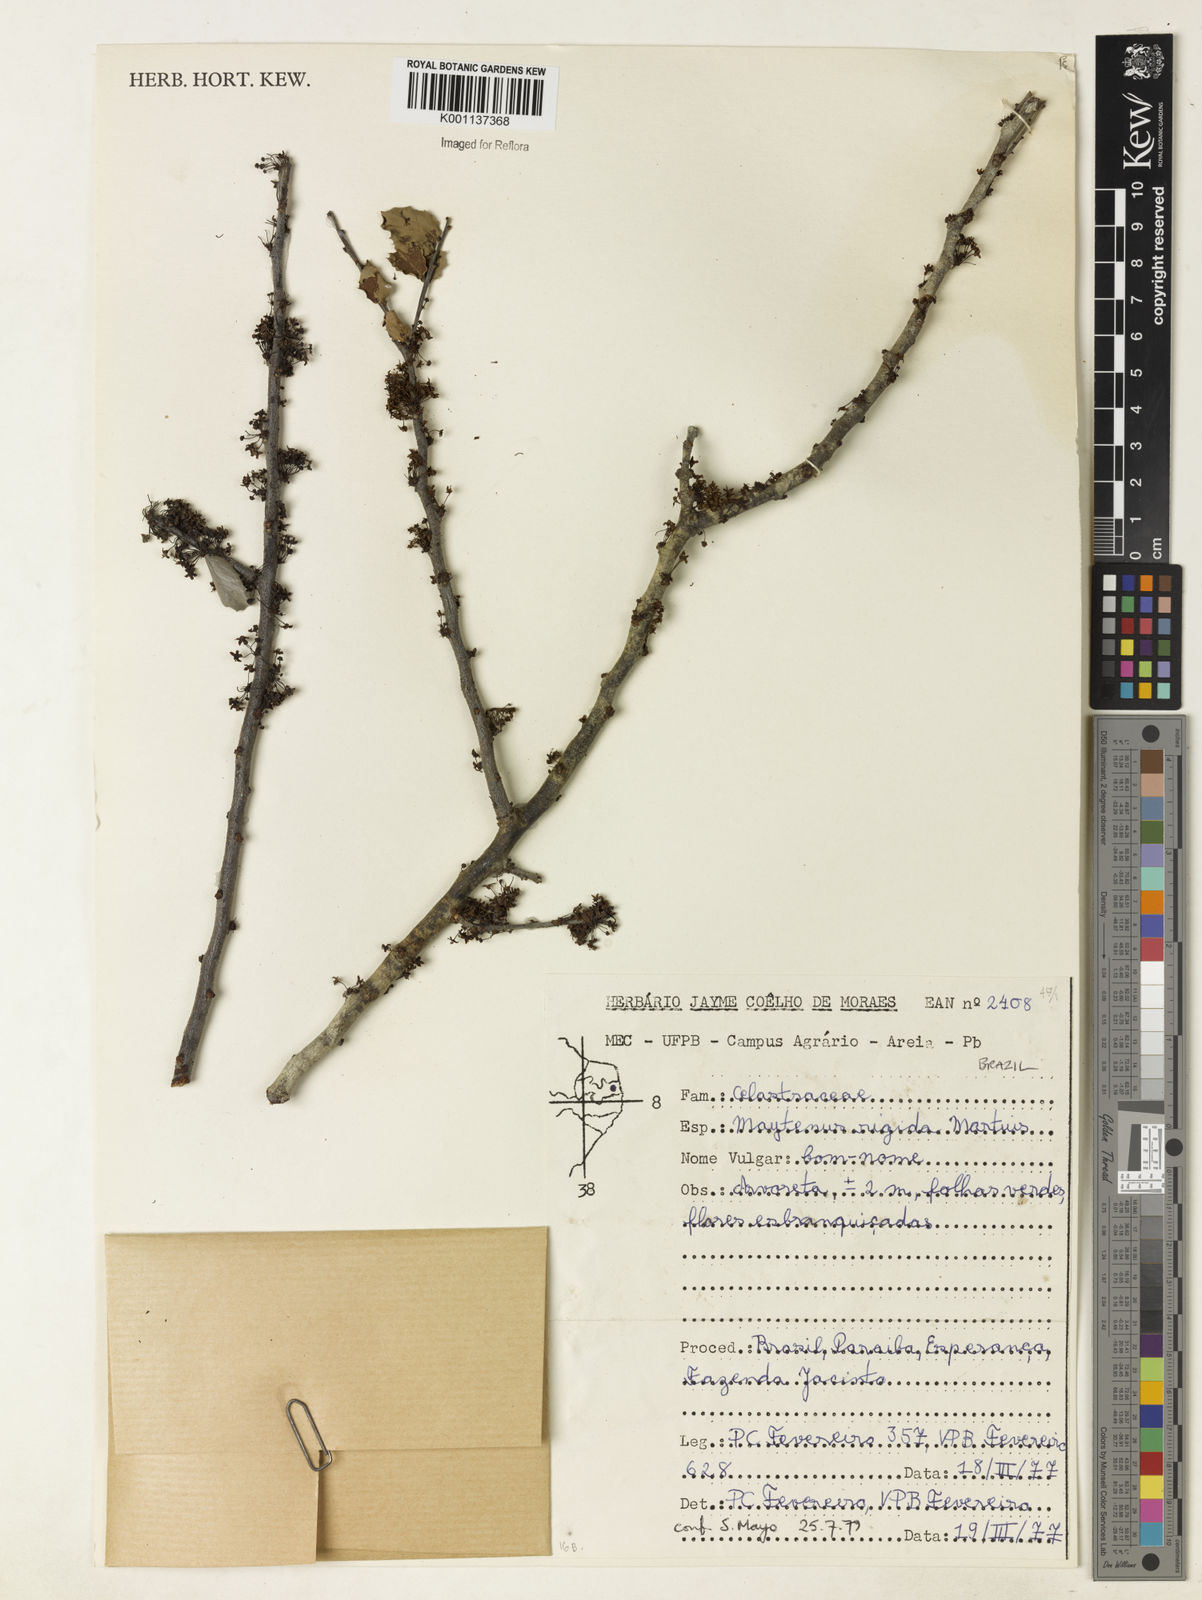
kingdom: Plantae
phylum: Tracheophyta
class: Magnoliopsida
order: Celastrales
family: Celastraceae
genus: Monteverdia
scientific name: Monteverdia rigida
